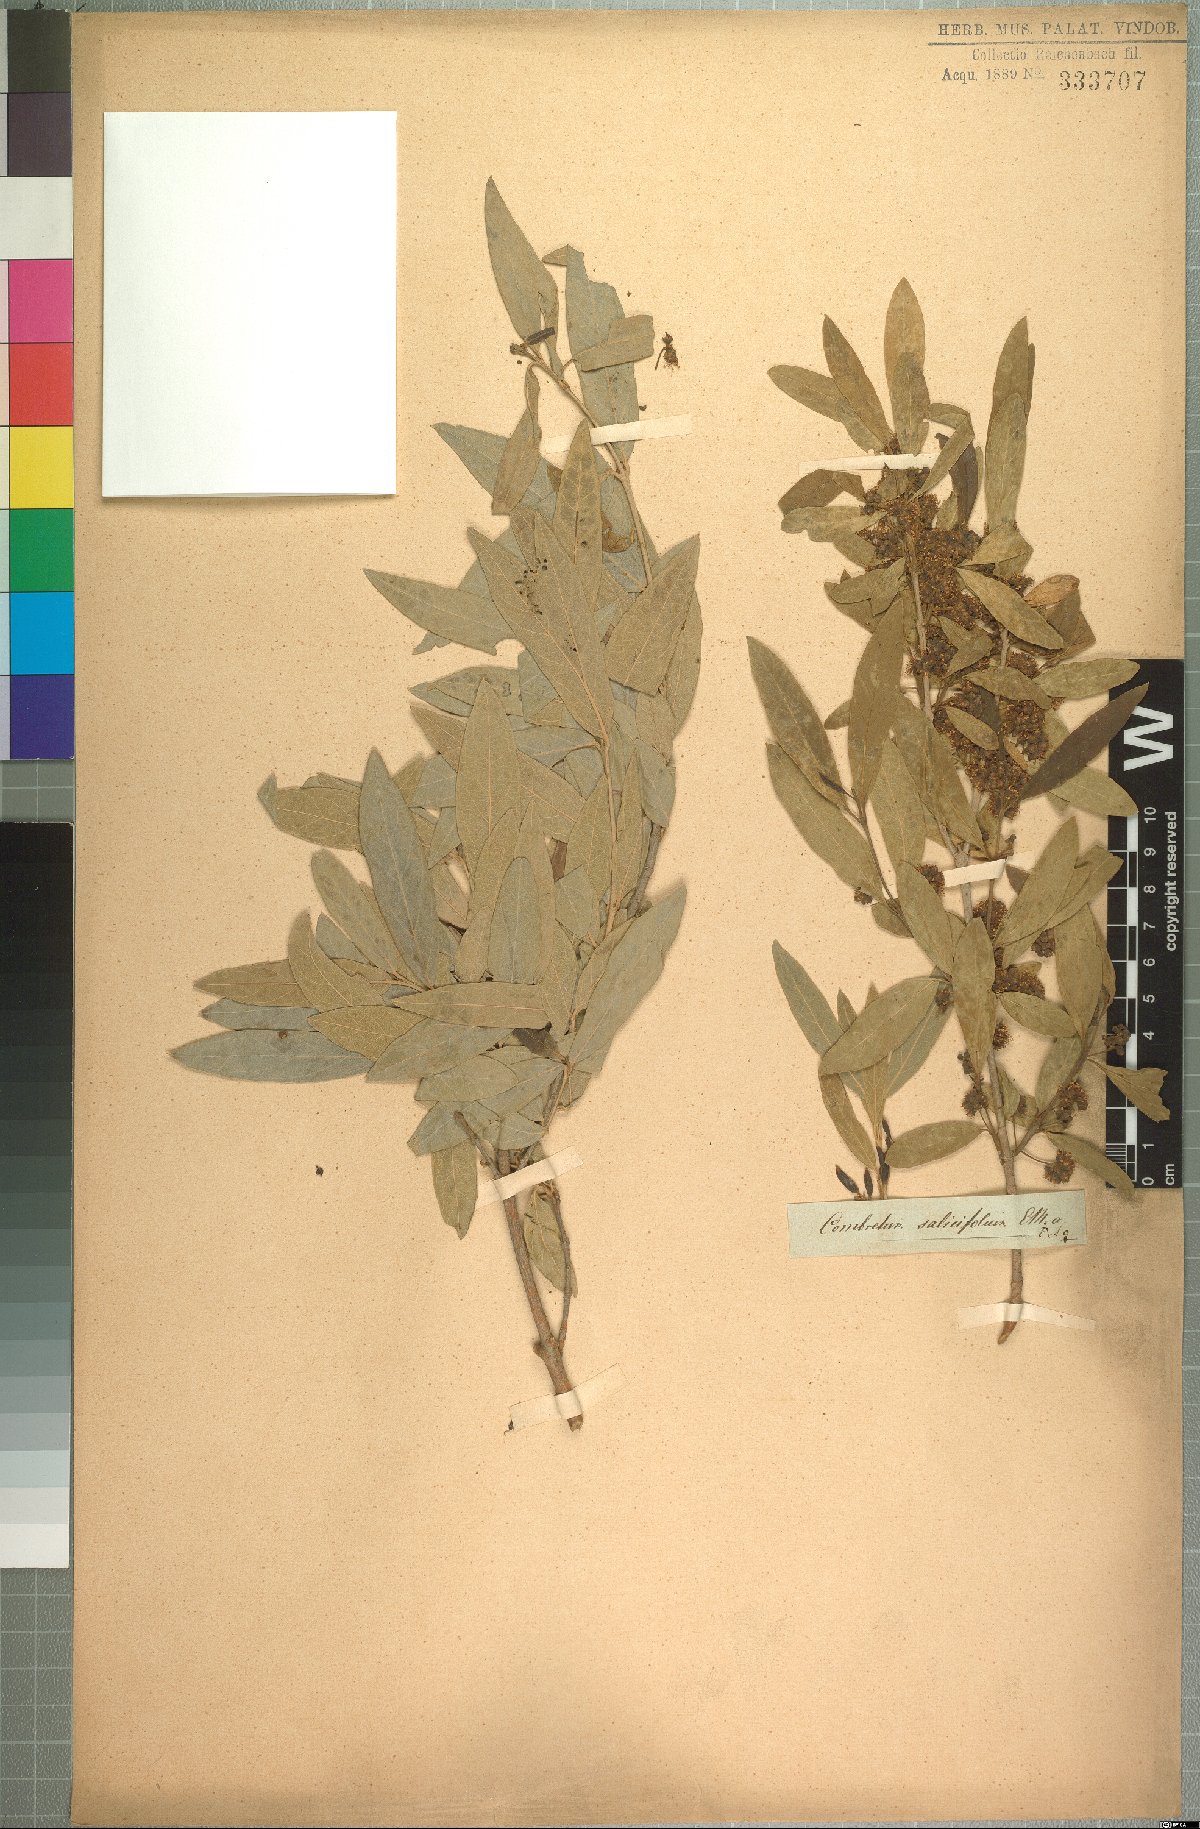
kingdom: Plantae
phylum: Tracheophyta
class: Magnoliopsida
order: Myrtales
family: Combretaceae
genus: Combretum
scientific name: Combretum caffrum
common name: Cape bushwillow
